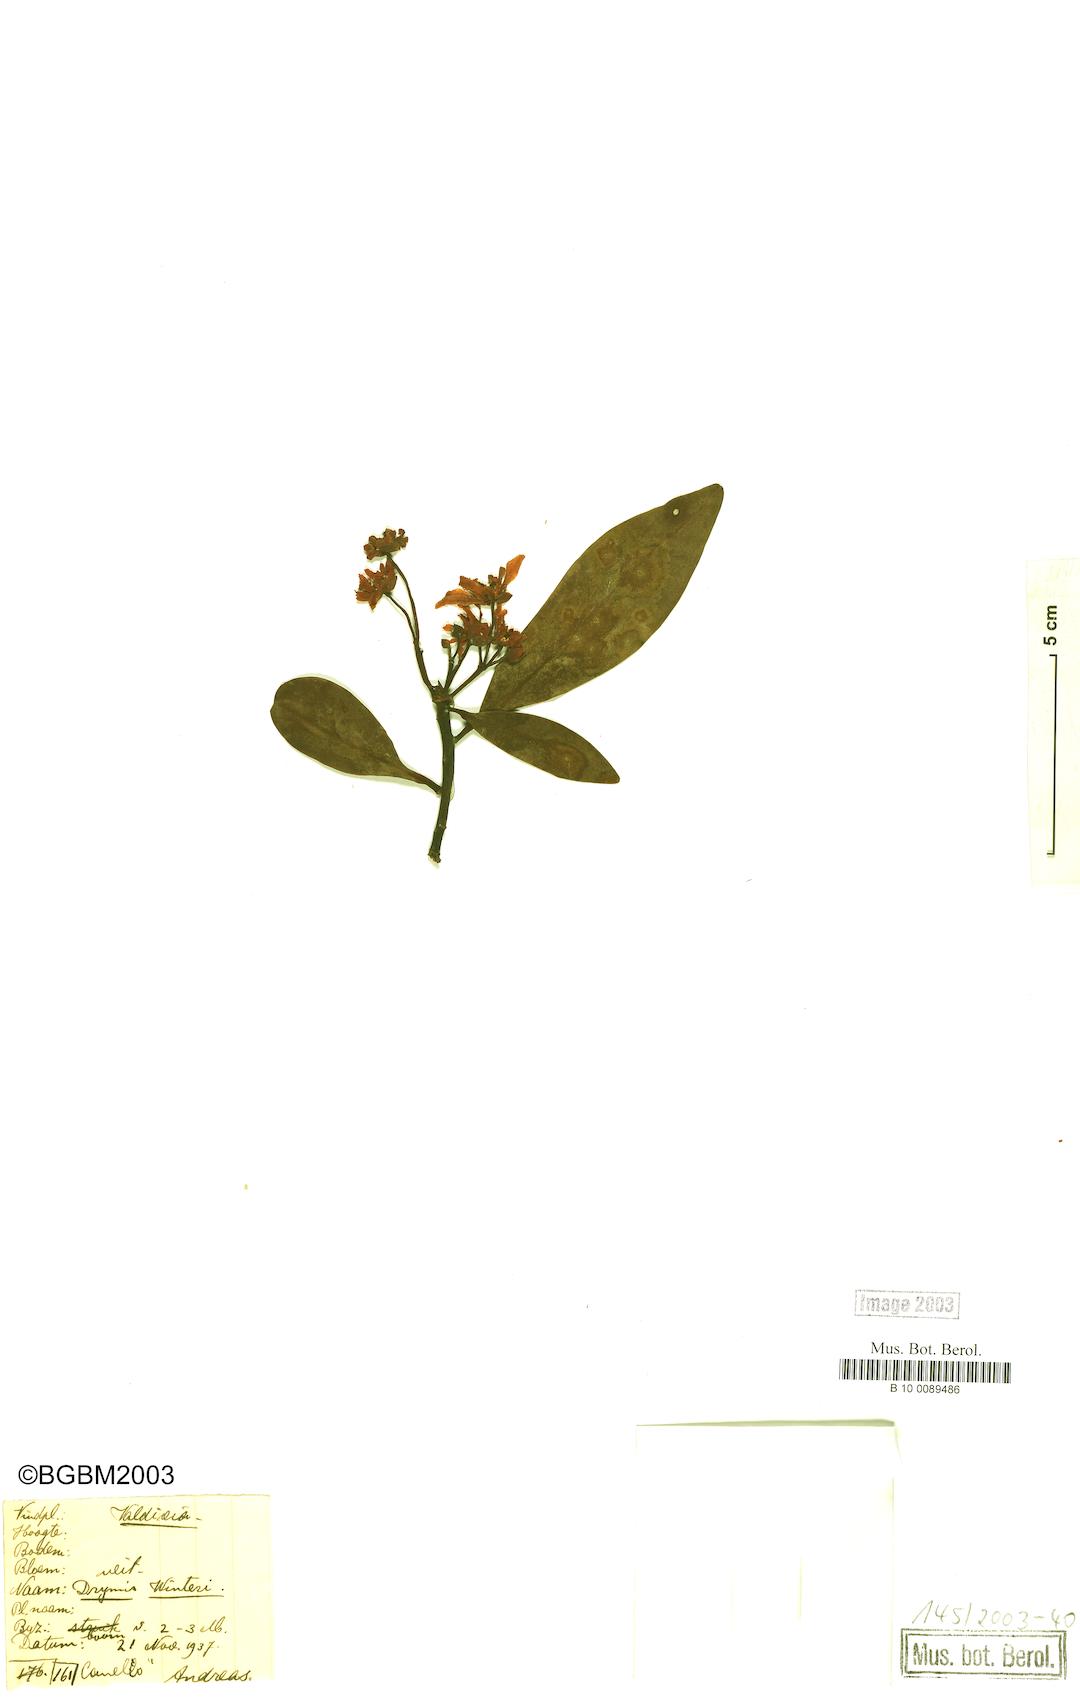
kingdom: Plantae
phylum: Tracheophyta
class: Magnoliopsida
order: Canellales
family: Winteraceae
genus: Drimys
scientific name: Drimys winteri
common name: Winter's-bark
